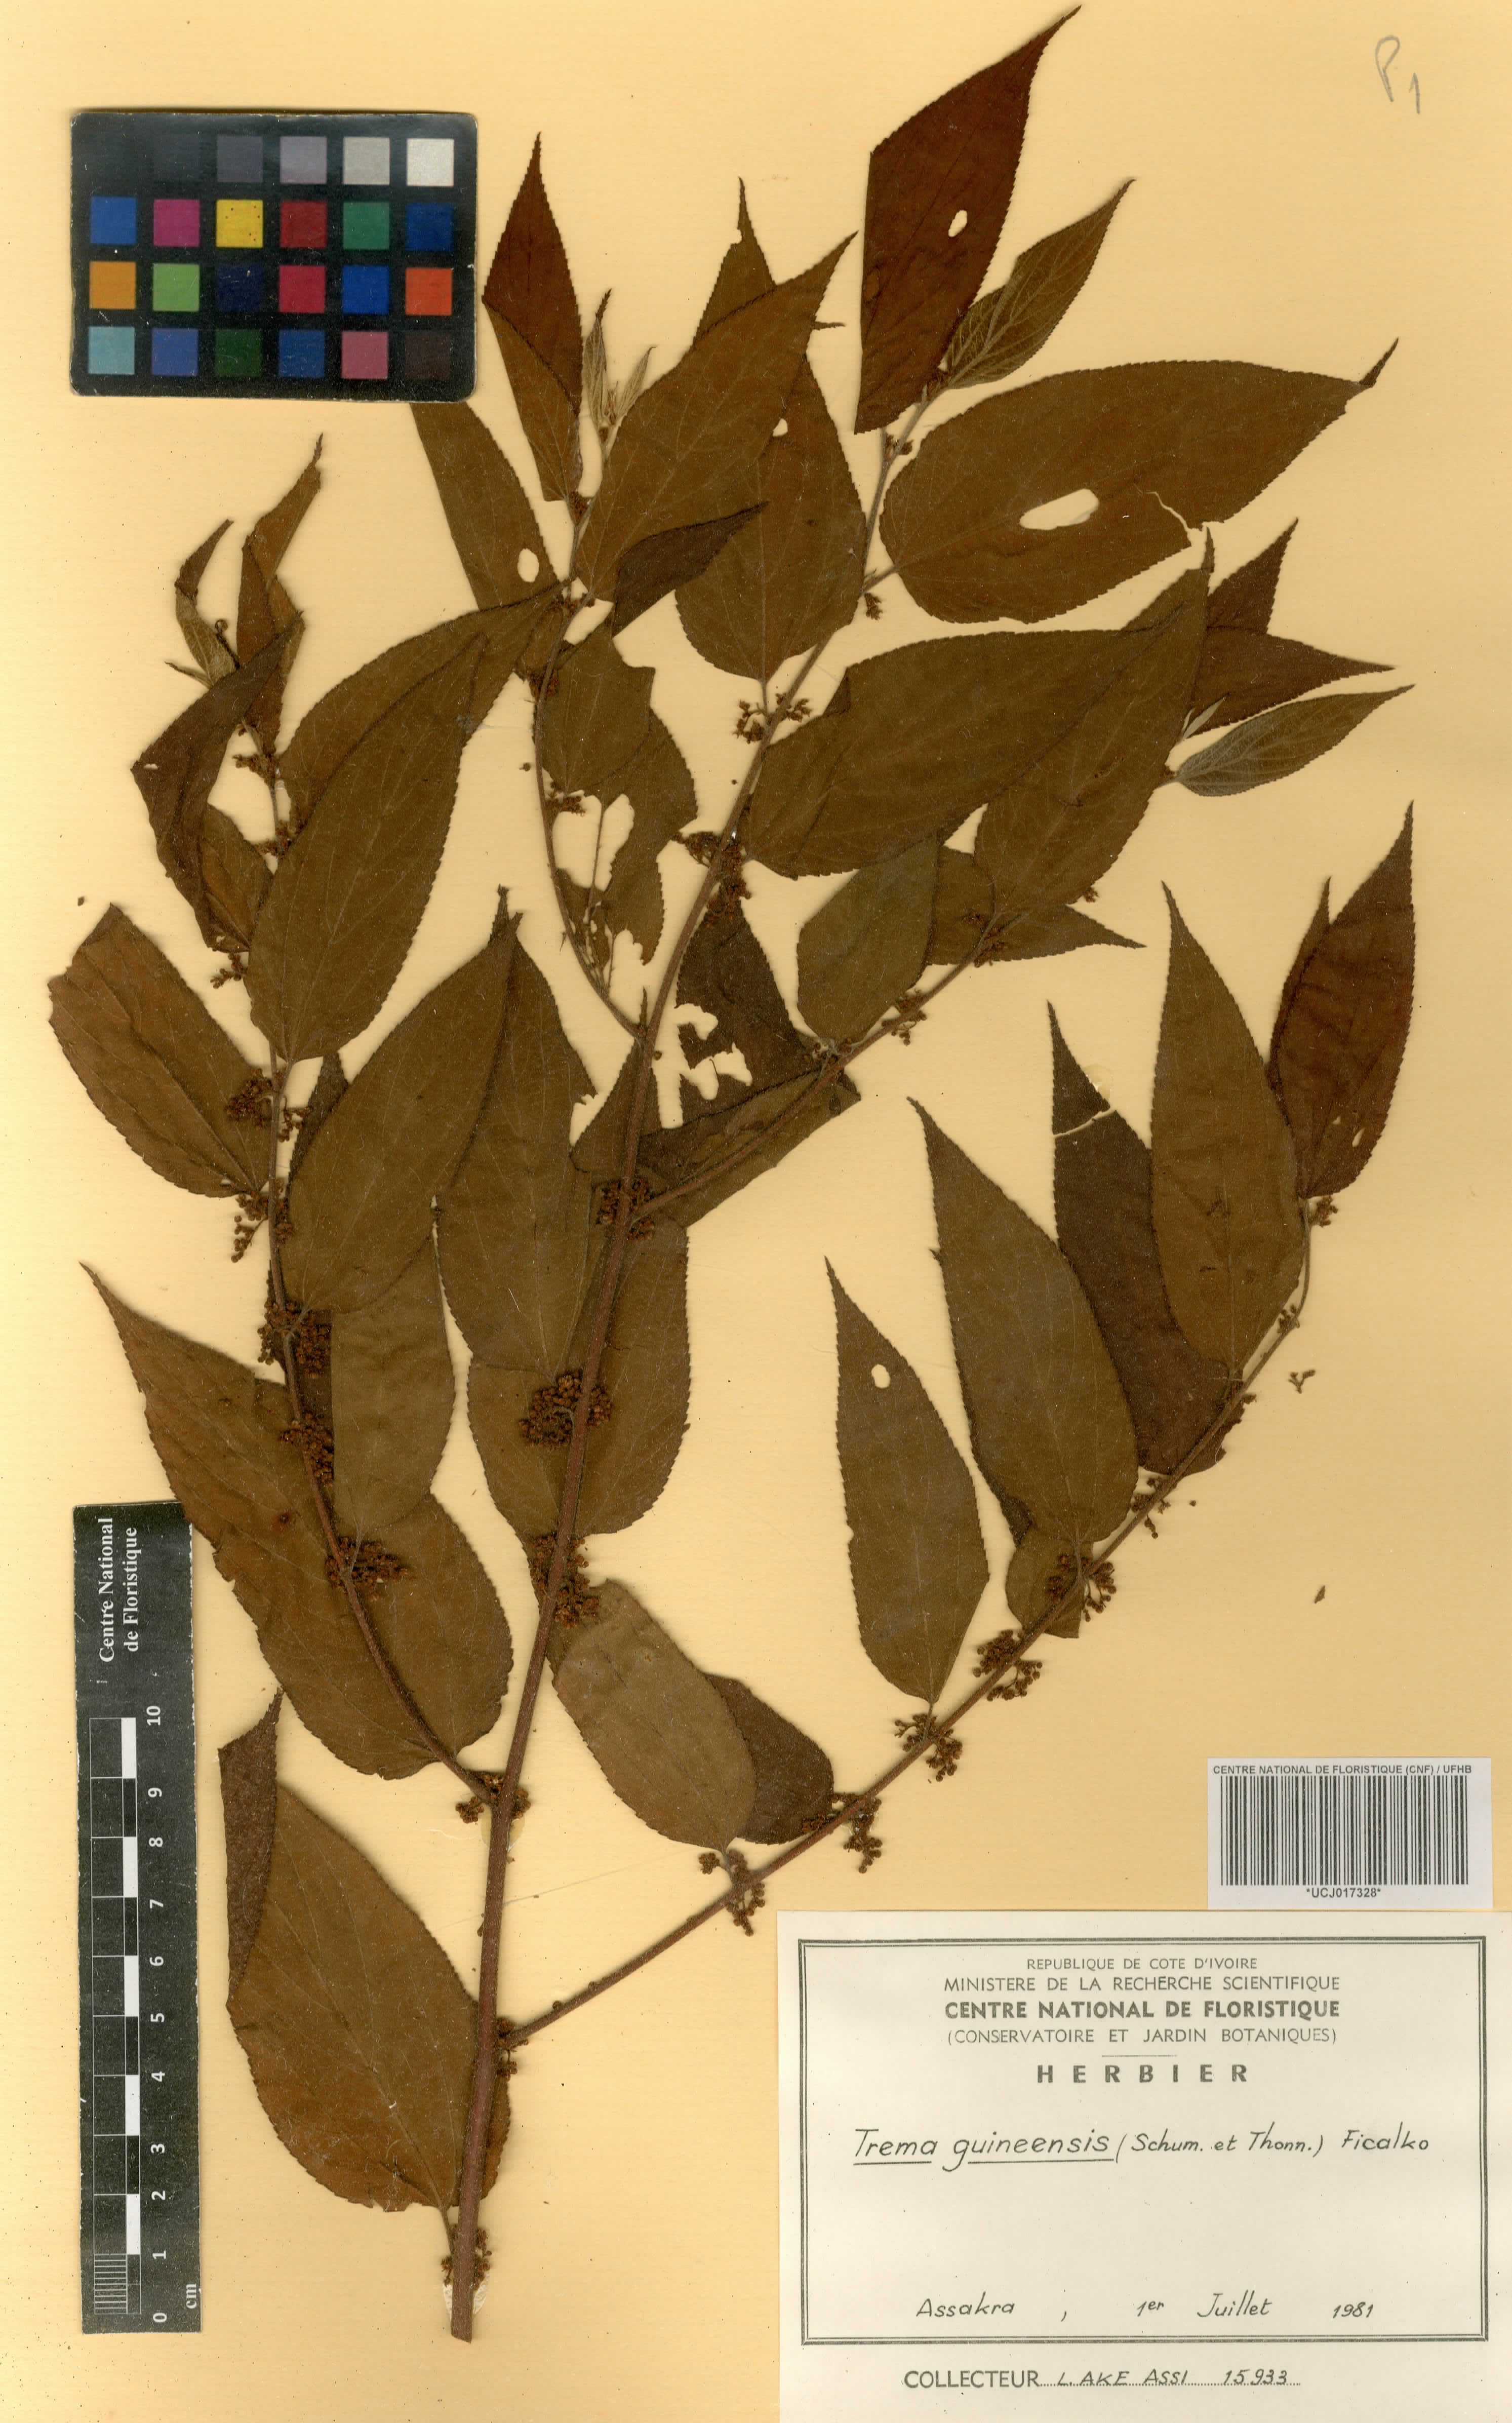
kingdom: Plantae
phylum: Tracheophyta
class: Magnoliopsida
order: Rosales
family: Cannabaceae
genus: Trema
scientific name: Trema orientale
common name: Indian charcoal tree
